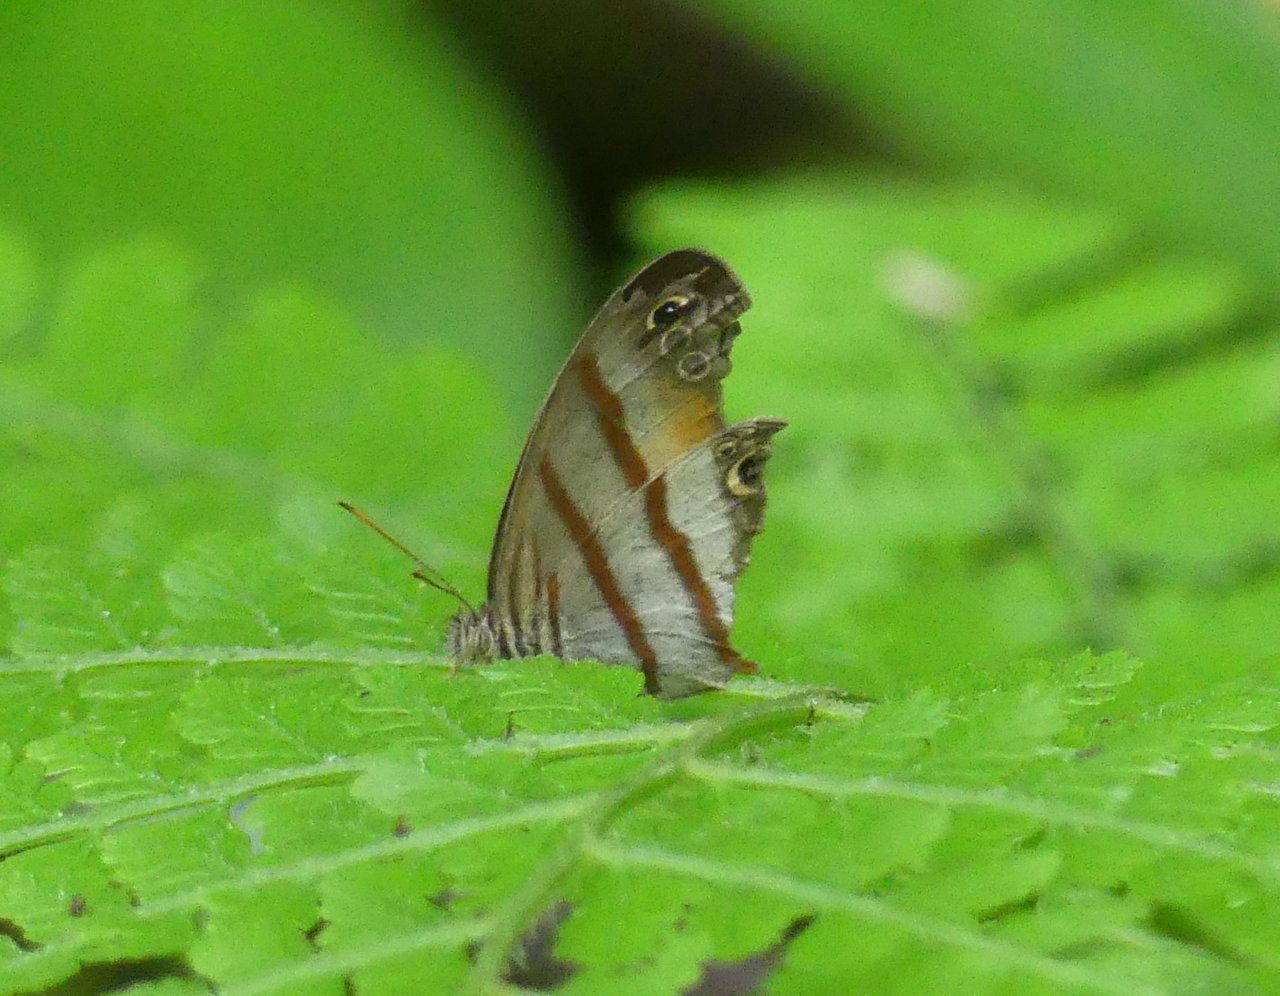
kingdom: Animalia
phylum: Arthropoda
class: Insecta
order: Lepidoptera
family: Nymphalidae
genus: Euptychia
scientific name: Euptychia Cissia labe
